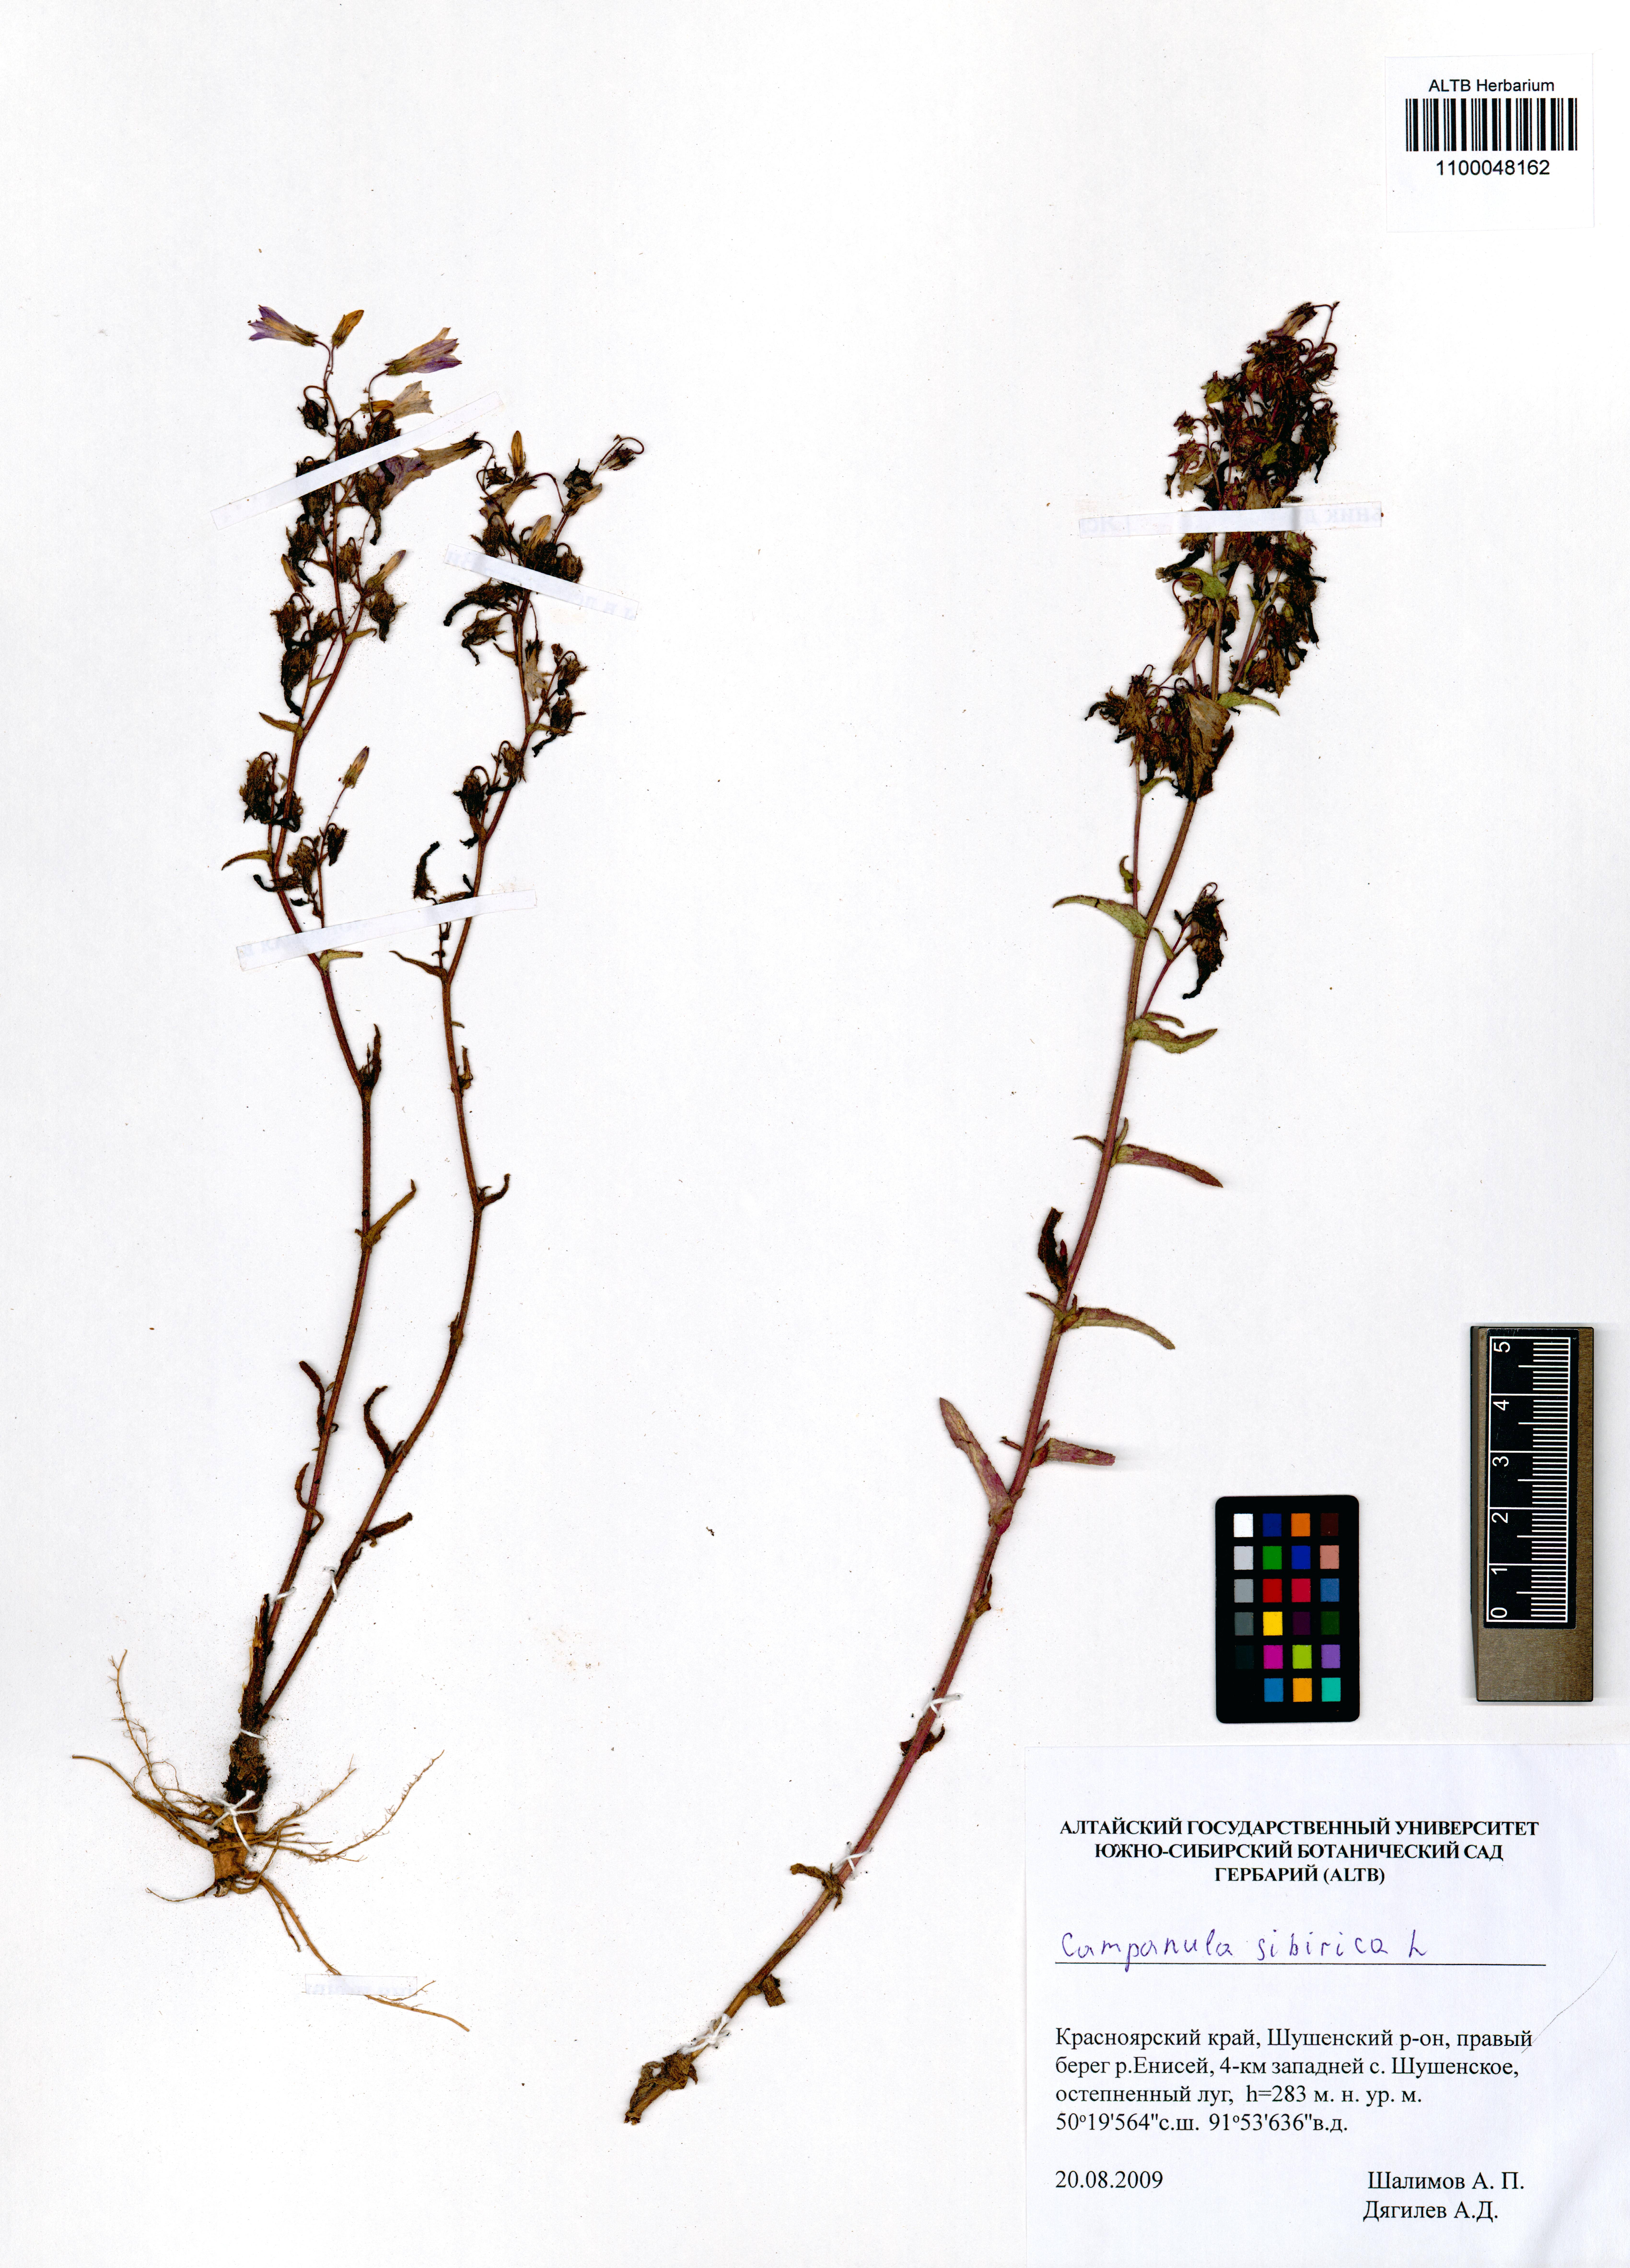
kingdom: Plantae
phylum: Tracheophyta
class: Magnoliopsida
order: Asterales
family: Campanulaceae
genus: Campanula
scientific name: Campanula sibirica
